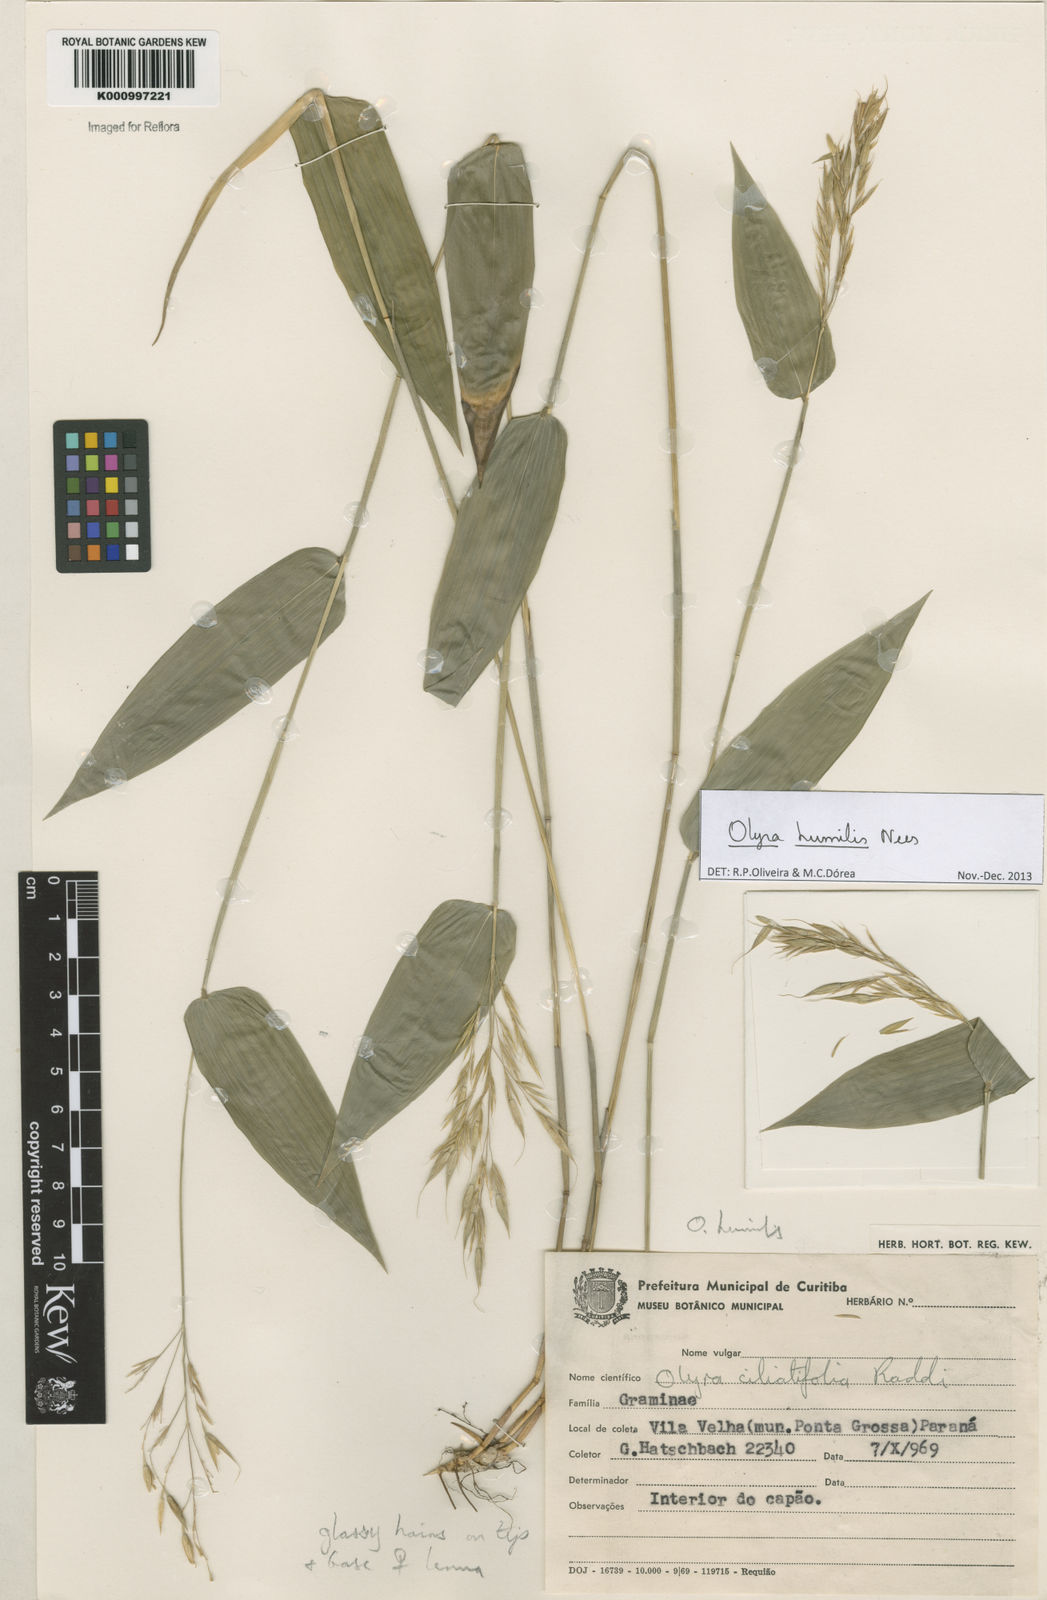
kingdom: Plantae
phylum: Tracheophyta
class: Liliopsida
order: Poales
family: Poaceae
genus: Olyra
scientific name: Olyra humilis
